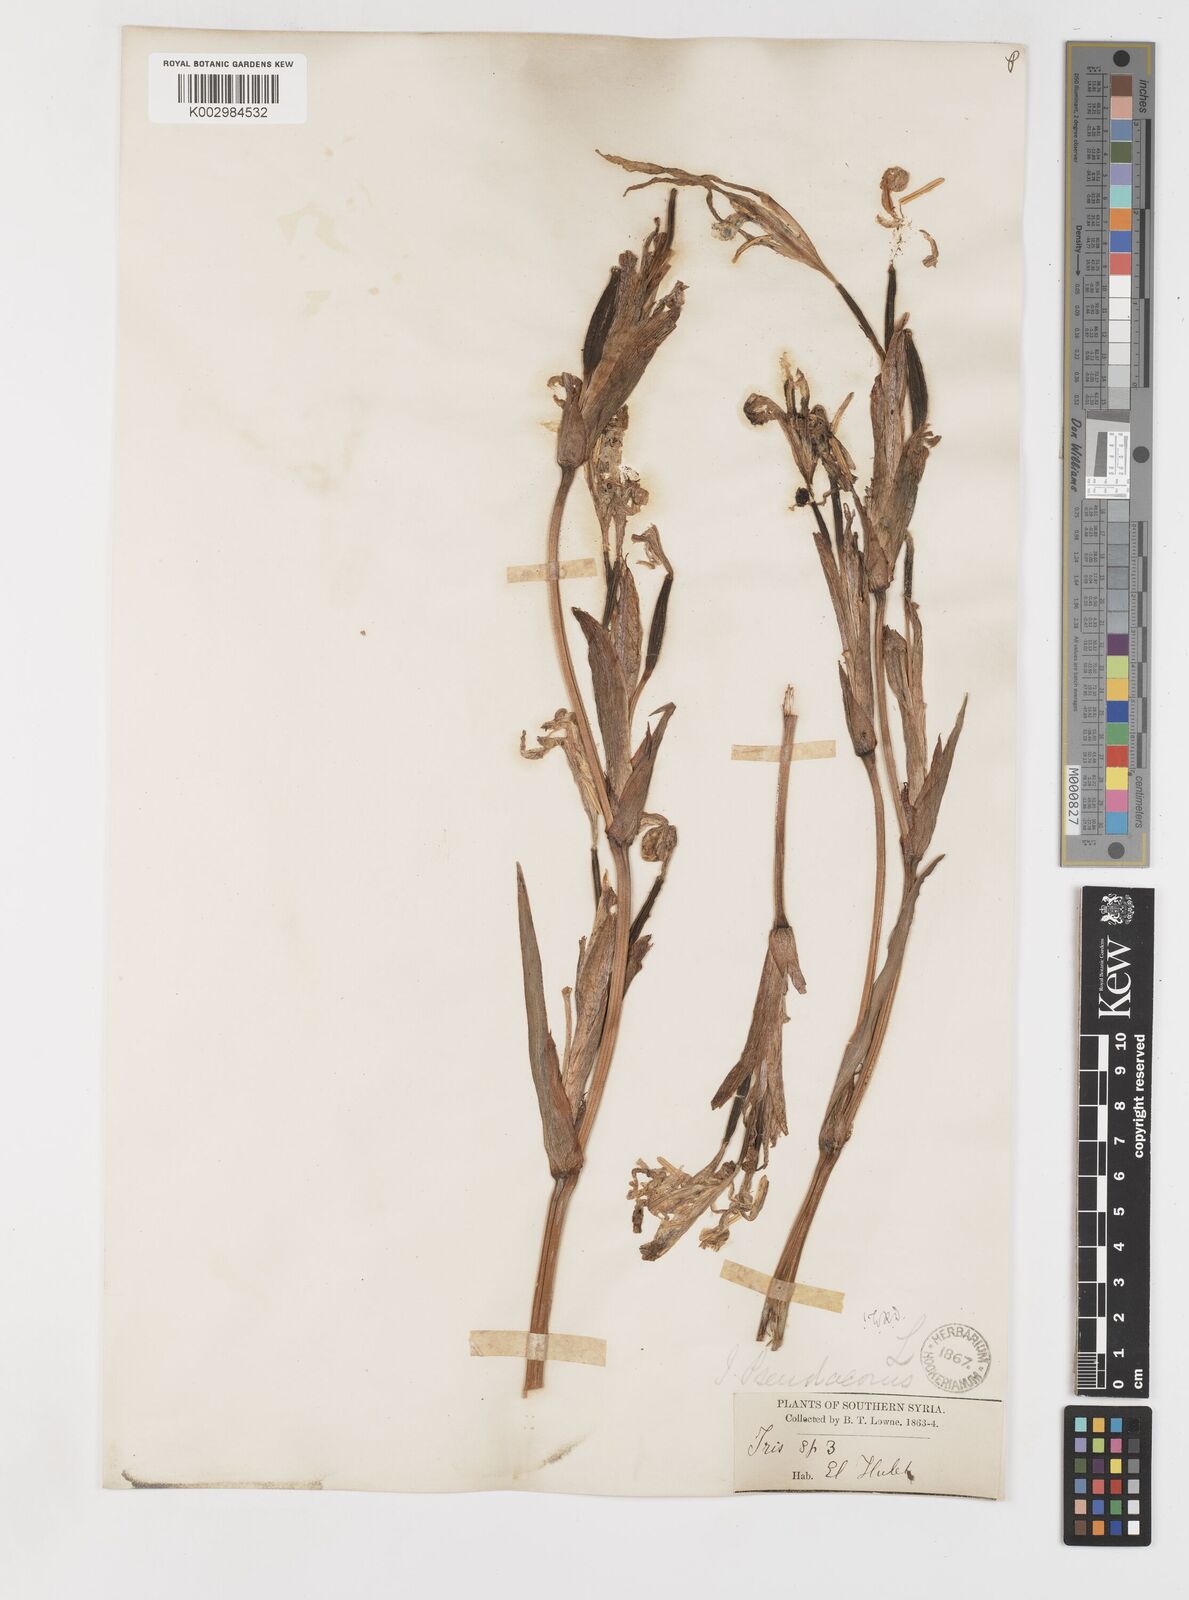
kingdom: Plantae
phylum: Tracheophyta
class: Liliopsida
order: Asparagales
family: Iridaceae
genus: Iris
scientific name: Iris pseudacorus
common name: Yellow flag
